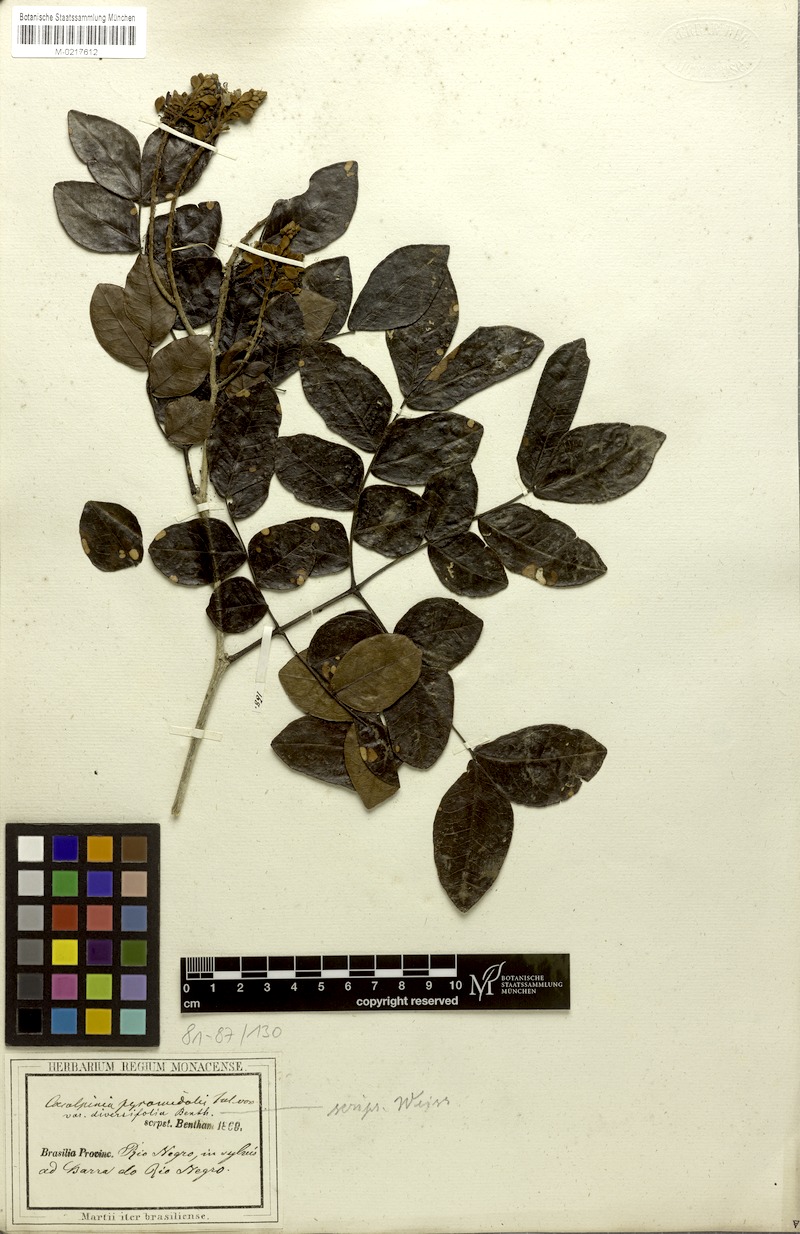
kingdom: Plantae
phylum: Tracheophyta
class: Magnoliopsida
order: Fabales
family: Fabaceae
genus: Cenostigma
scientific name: Cenostigma diversifolium
